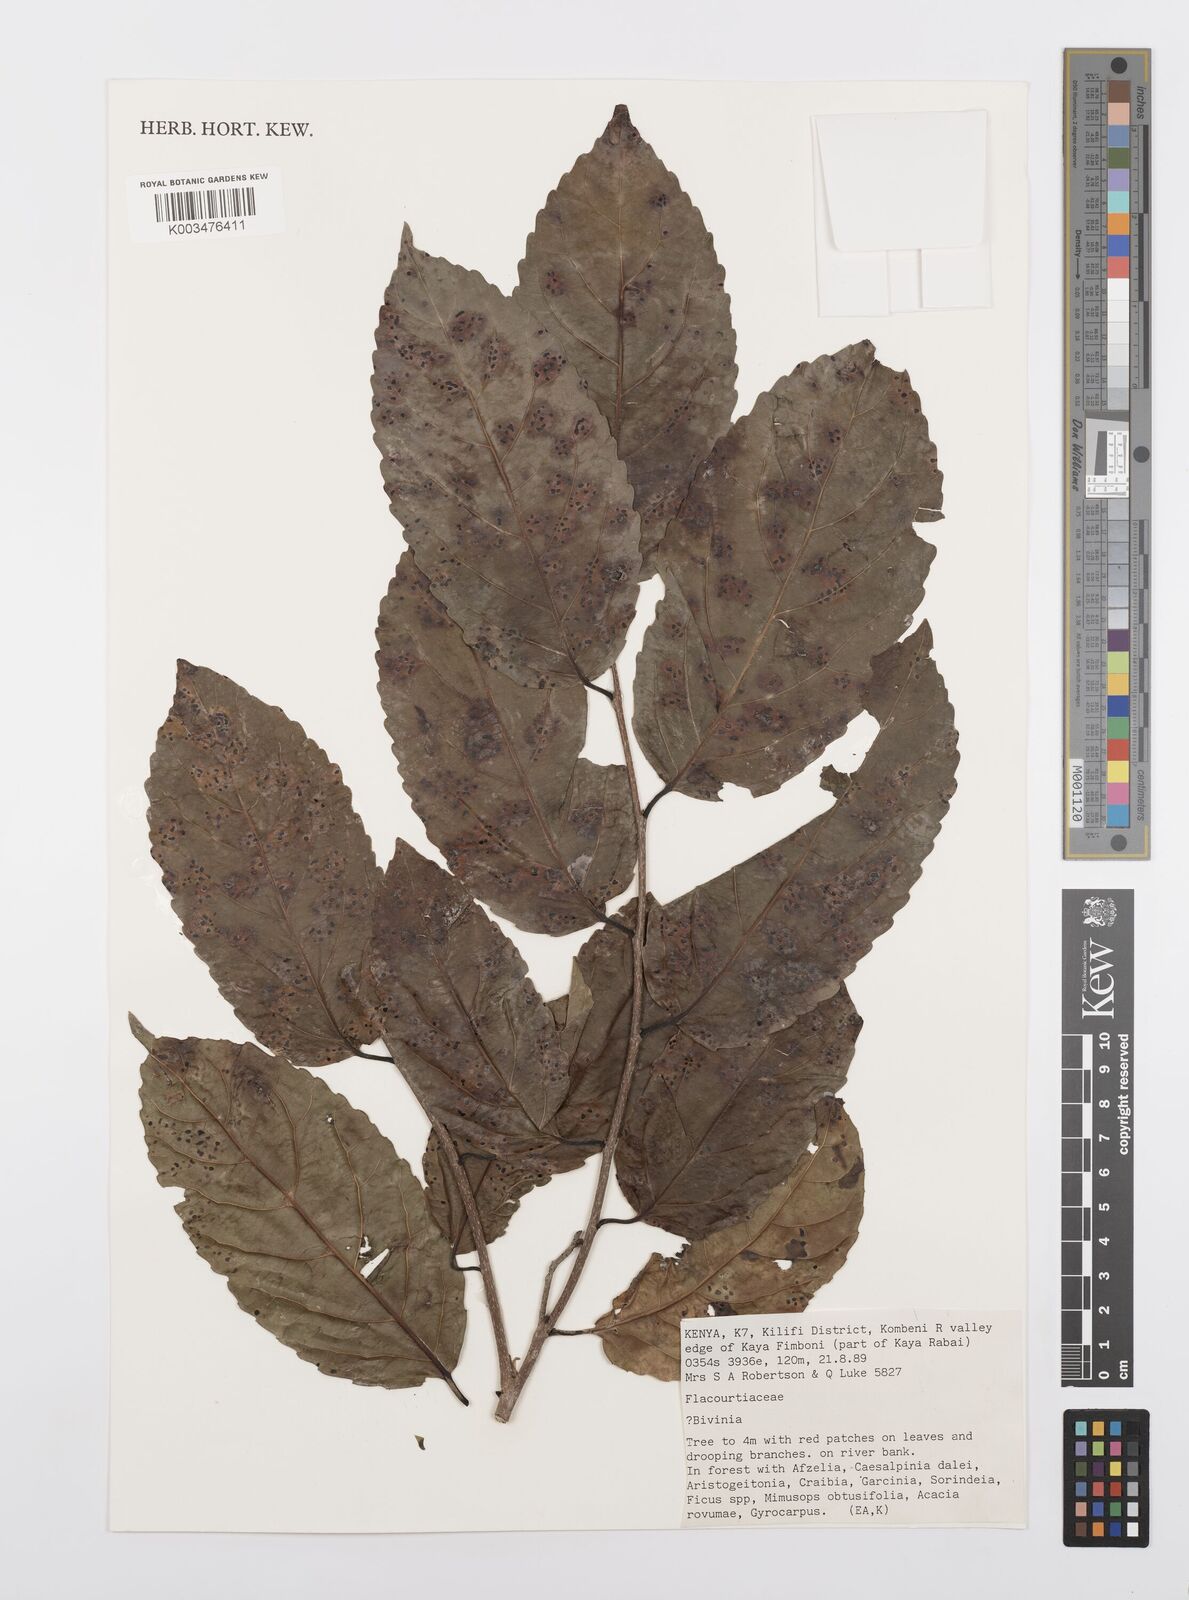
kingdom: Plantae
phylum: Tracheophyta
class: Magnoliopsida
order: Malpighiales
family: Salicaceae
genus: Bivinia
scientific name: Bivinia
